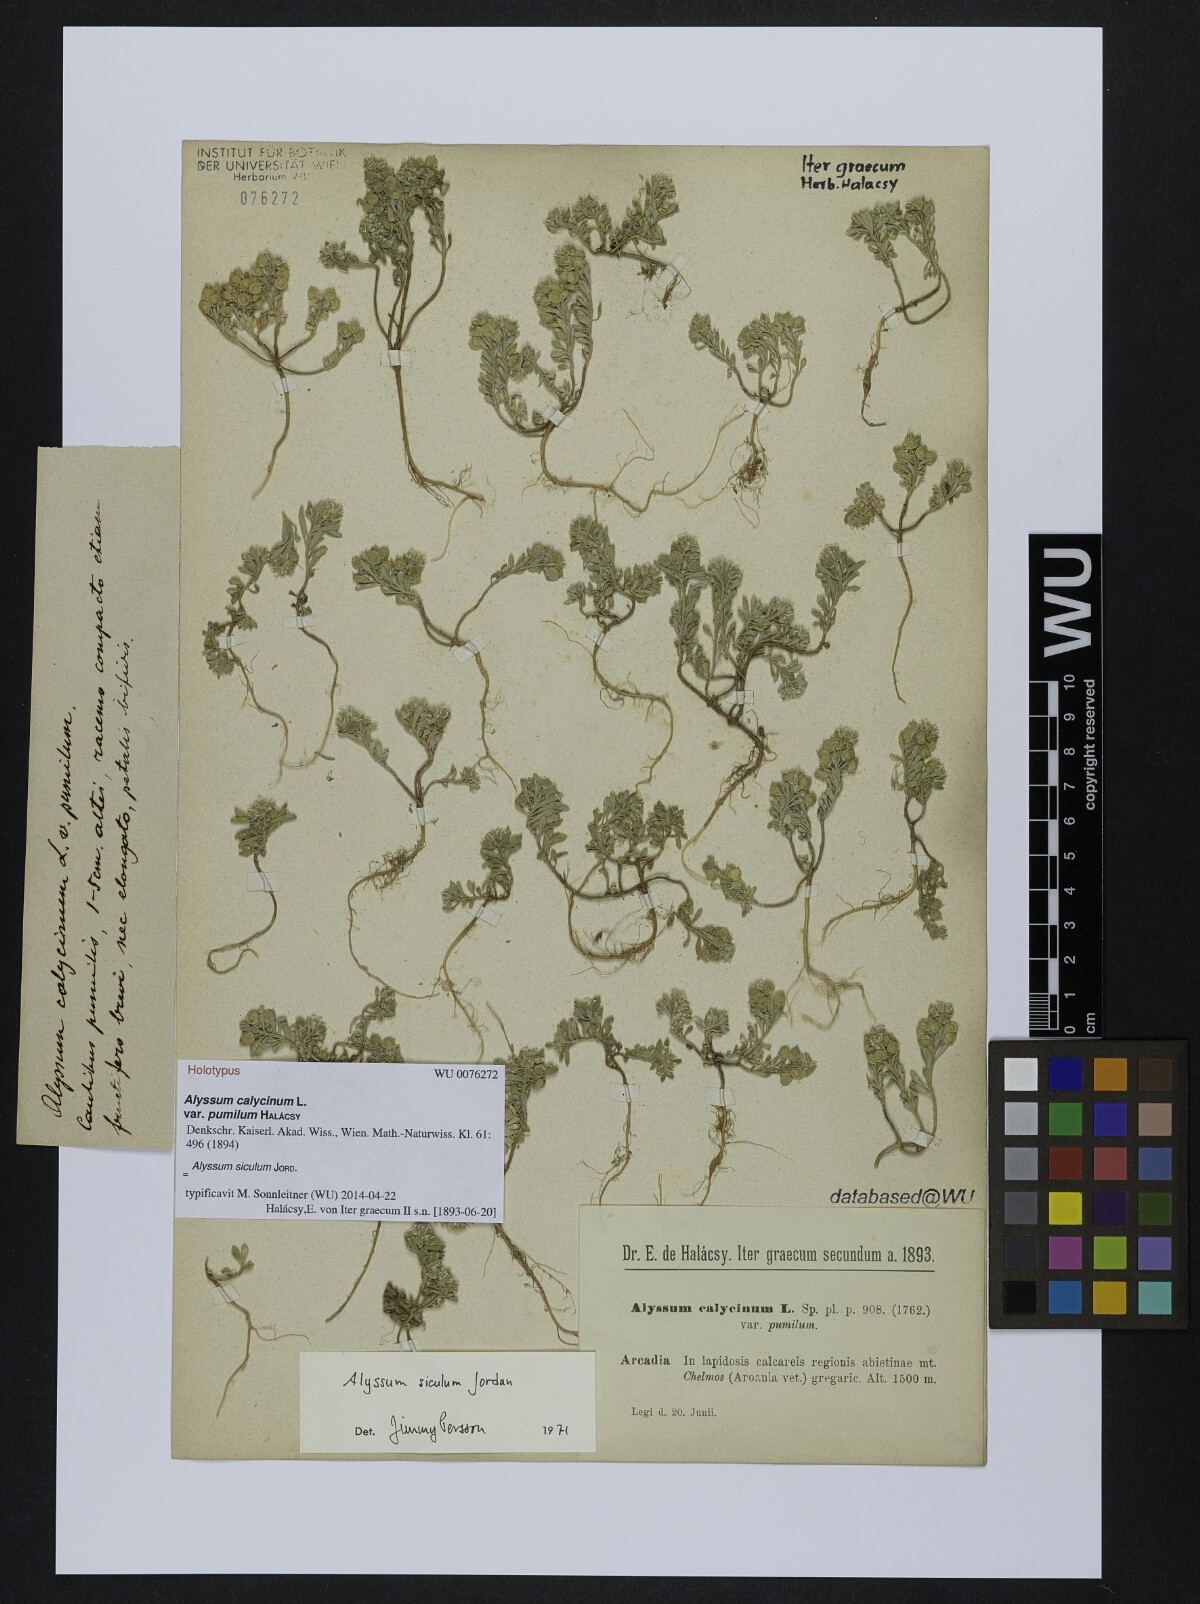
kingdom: Plantae
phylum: Tracheophyta
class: Magnoliopsida
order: Brassicales
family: Brassicaceae
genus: Alyssum
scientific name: Alyssum siculum
